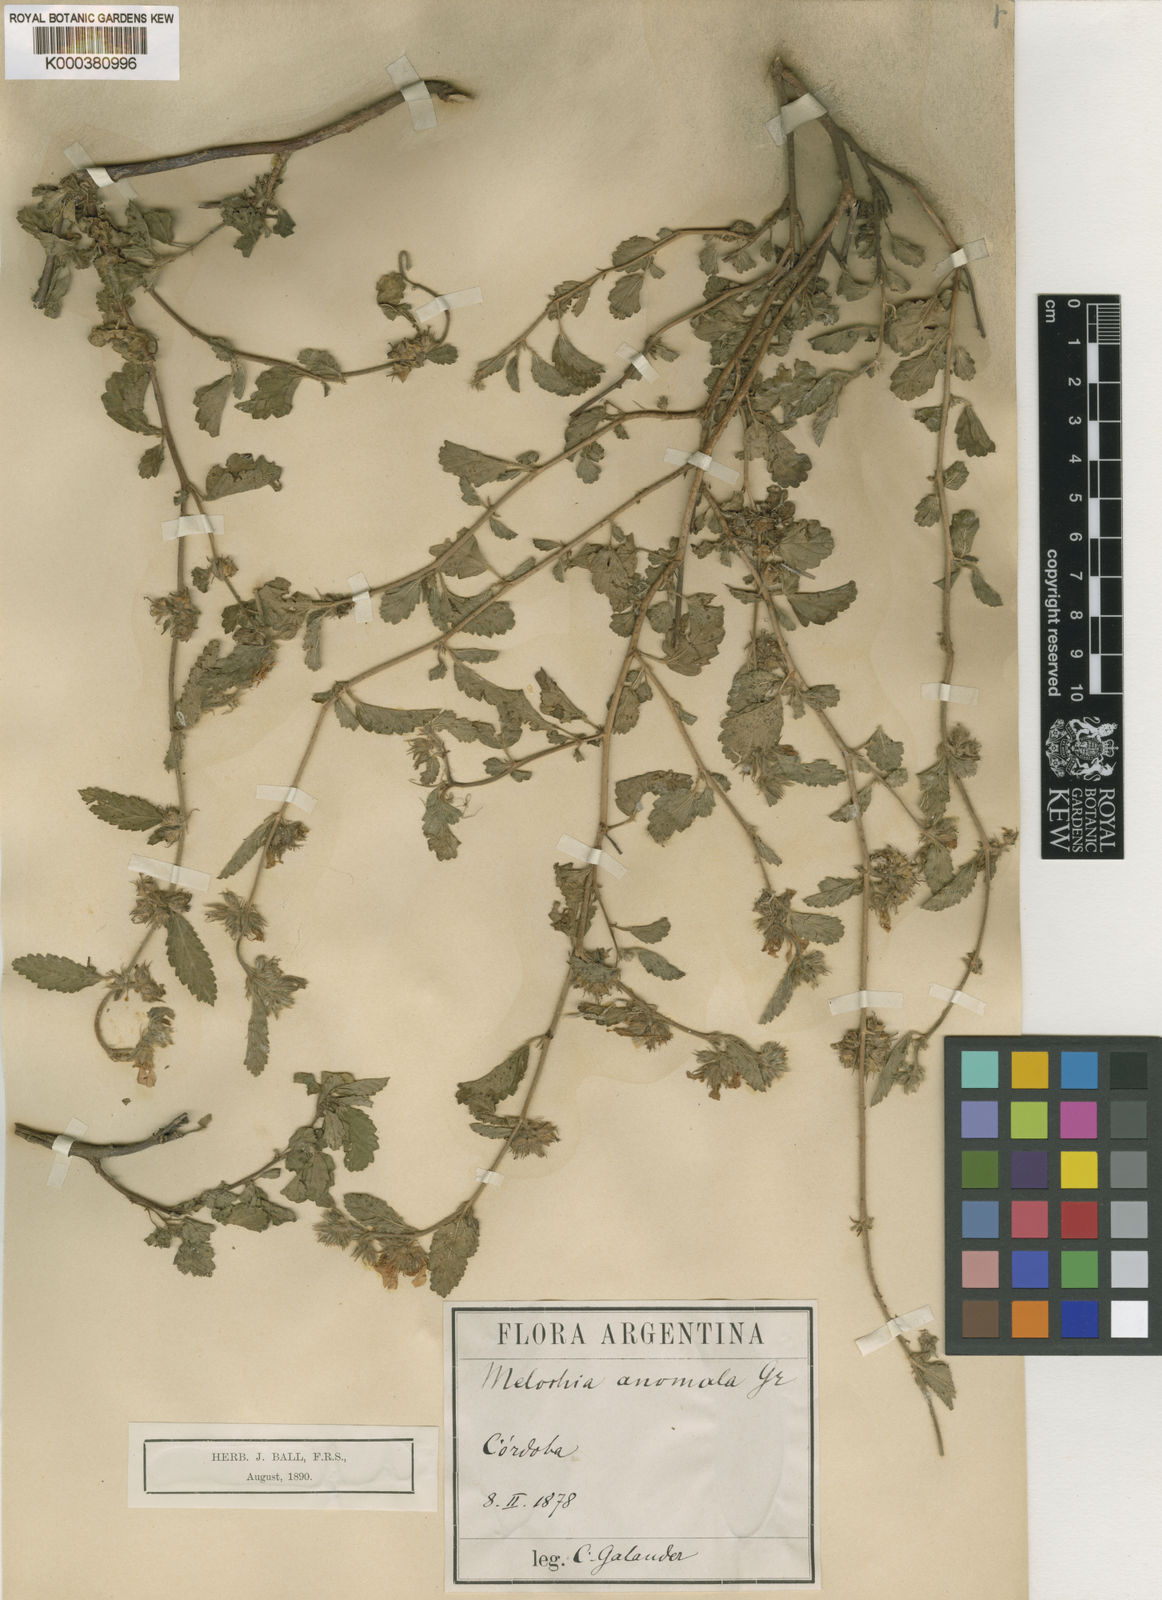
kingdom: Plantae
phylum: Tracheophyta
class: Magnoliopsida
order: Malvales
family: Malvaceae
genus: Melochia
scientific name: Melochia anomala
